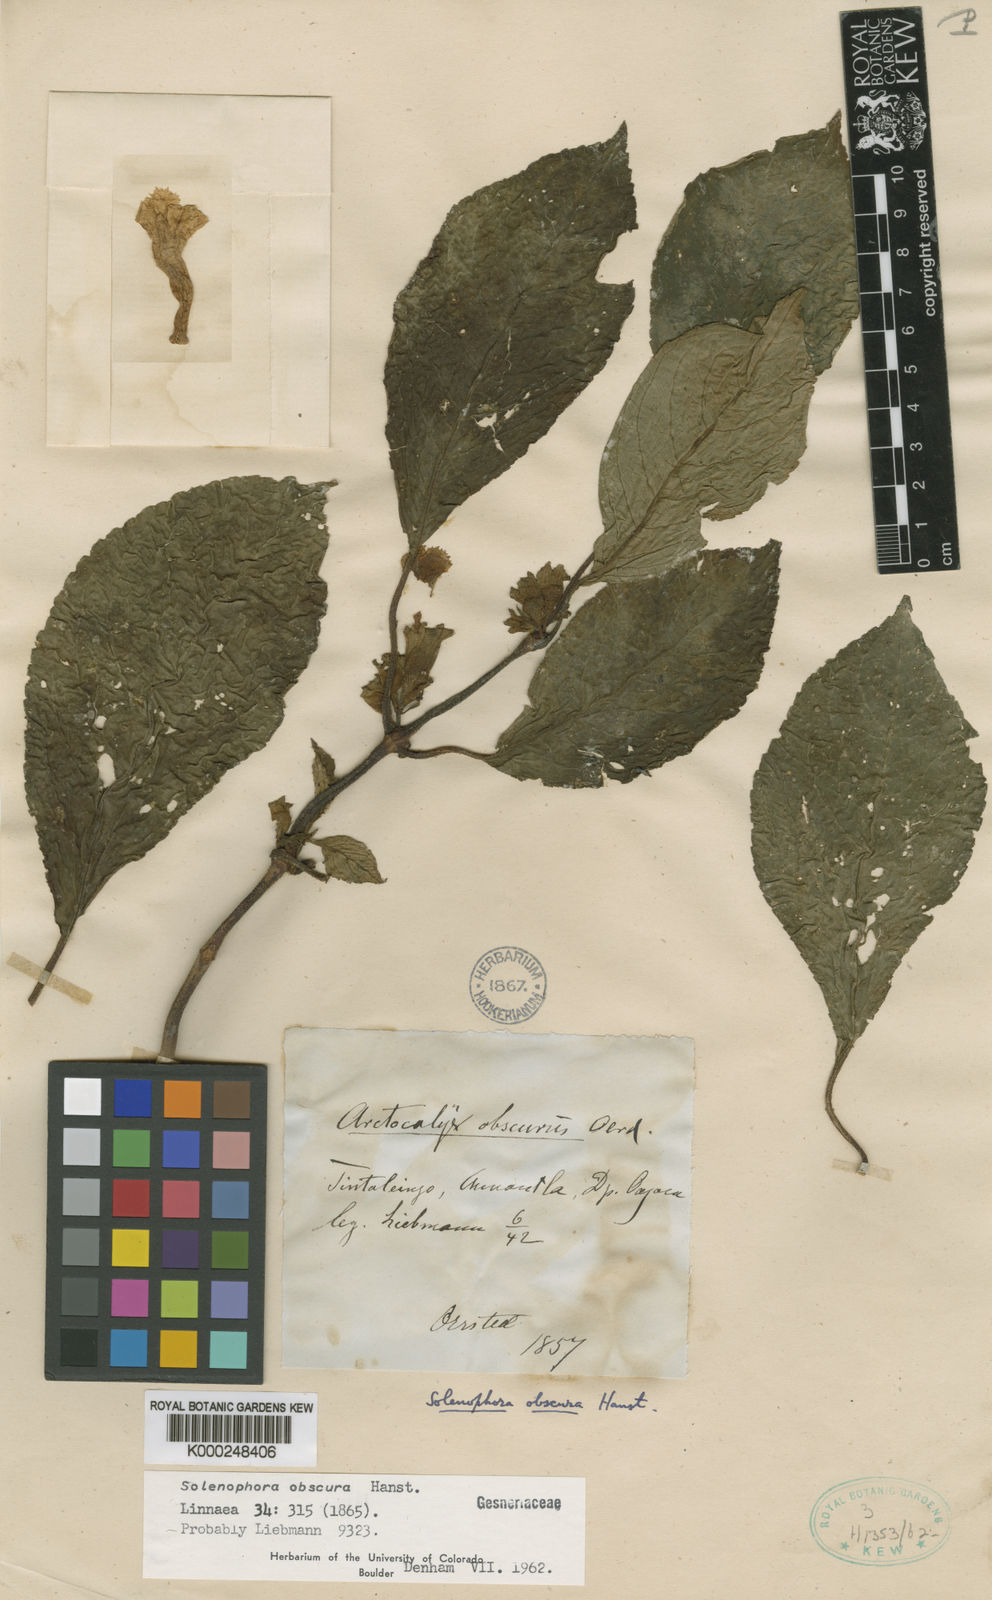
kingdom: Plantae
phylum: Tracheophyta
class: Magnoliopsida
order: Lamiales
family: Gesneriaceae
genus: Solenophora
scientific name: Solenophora obscura
